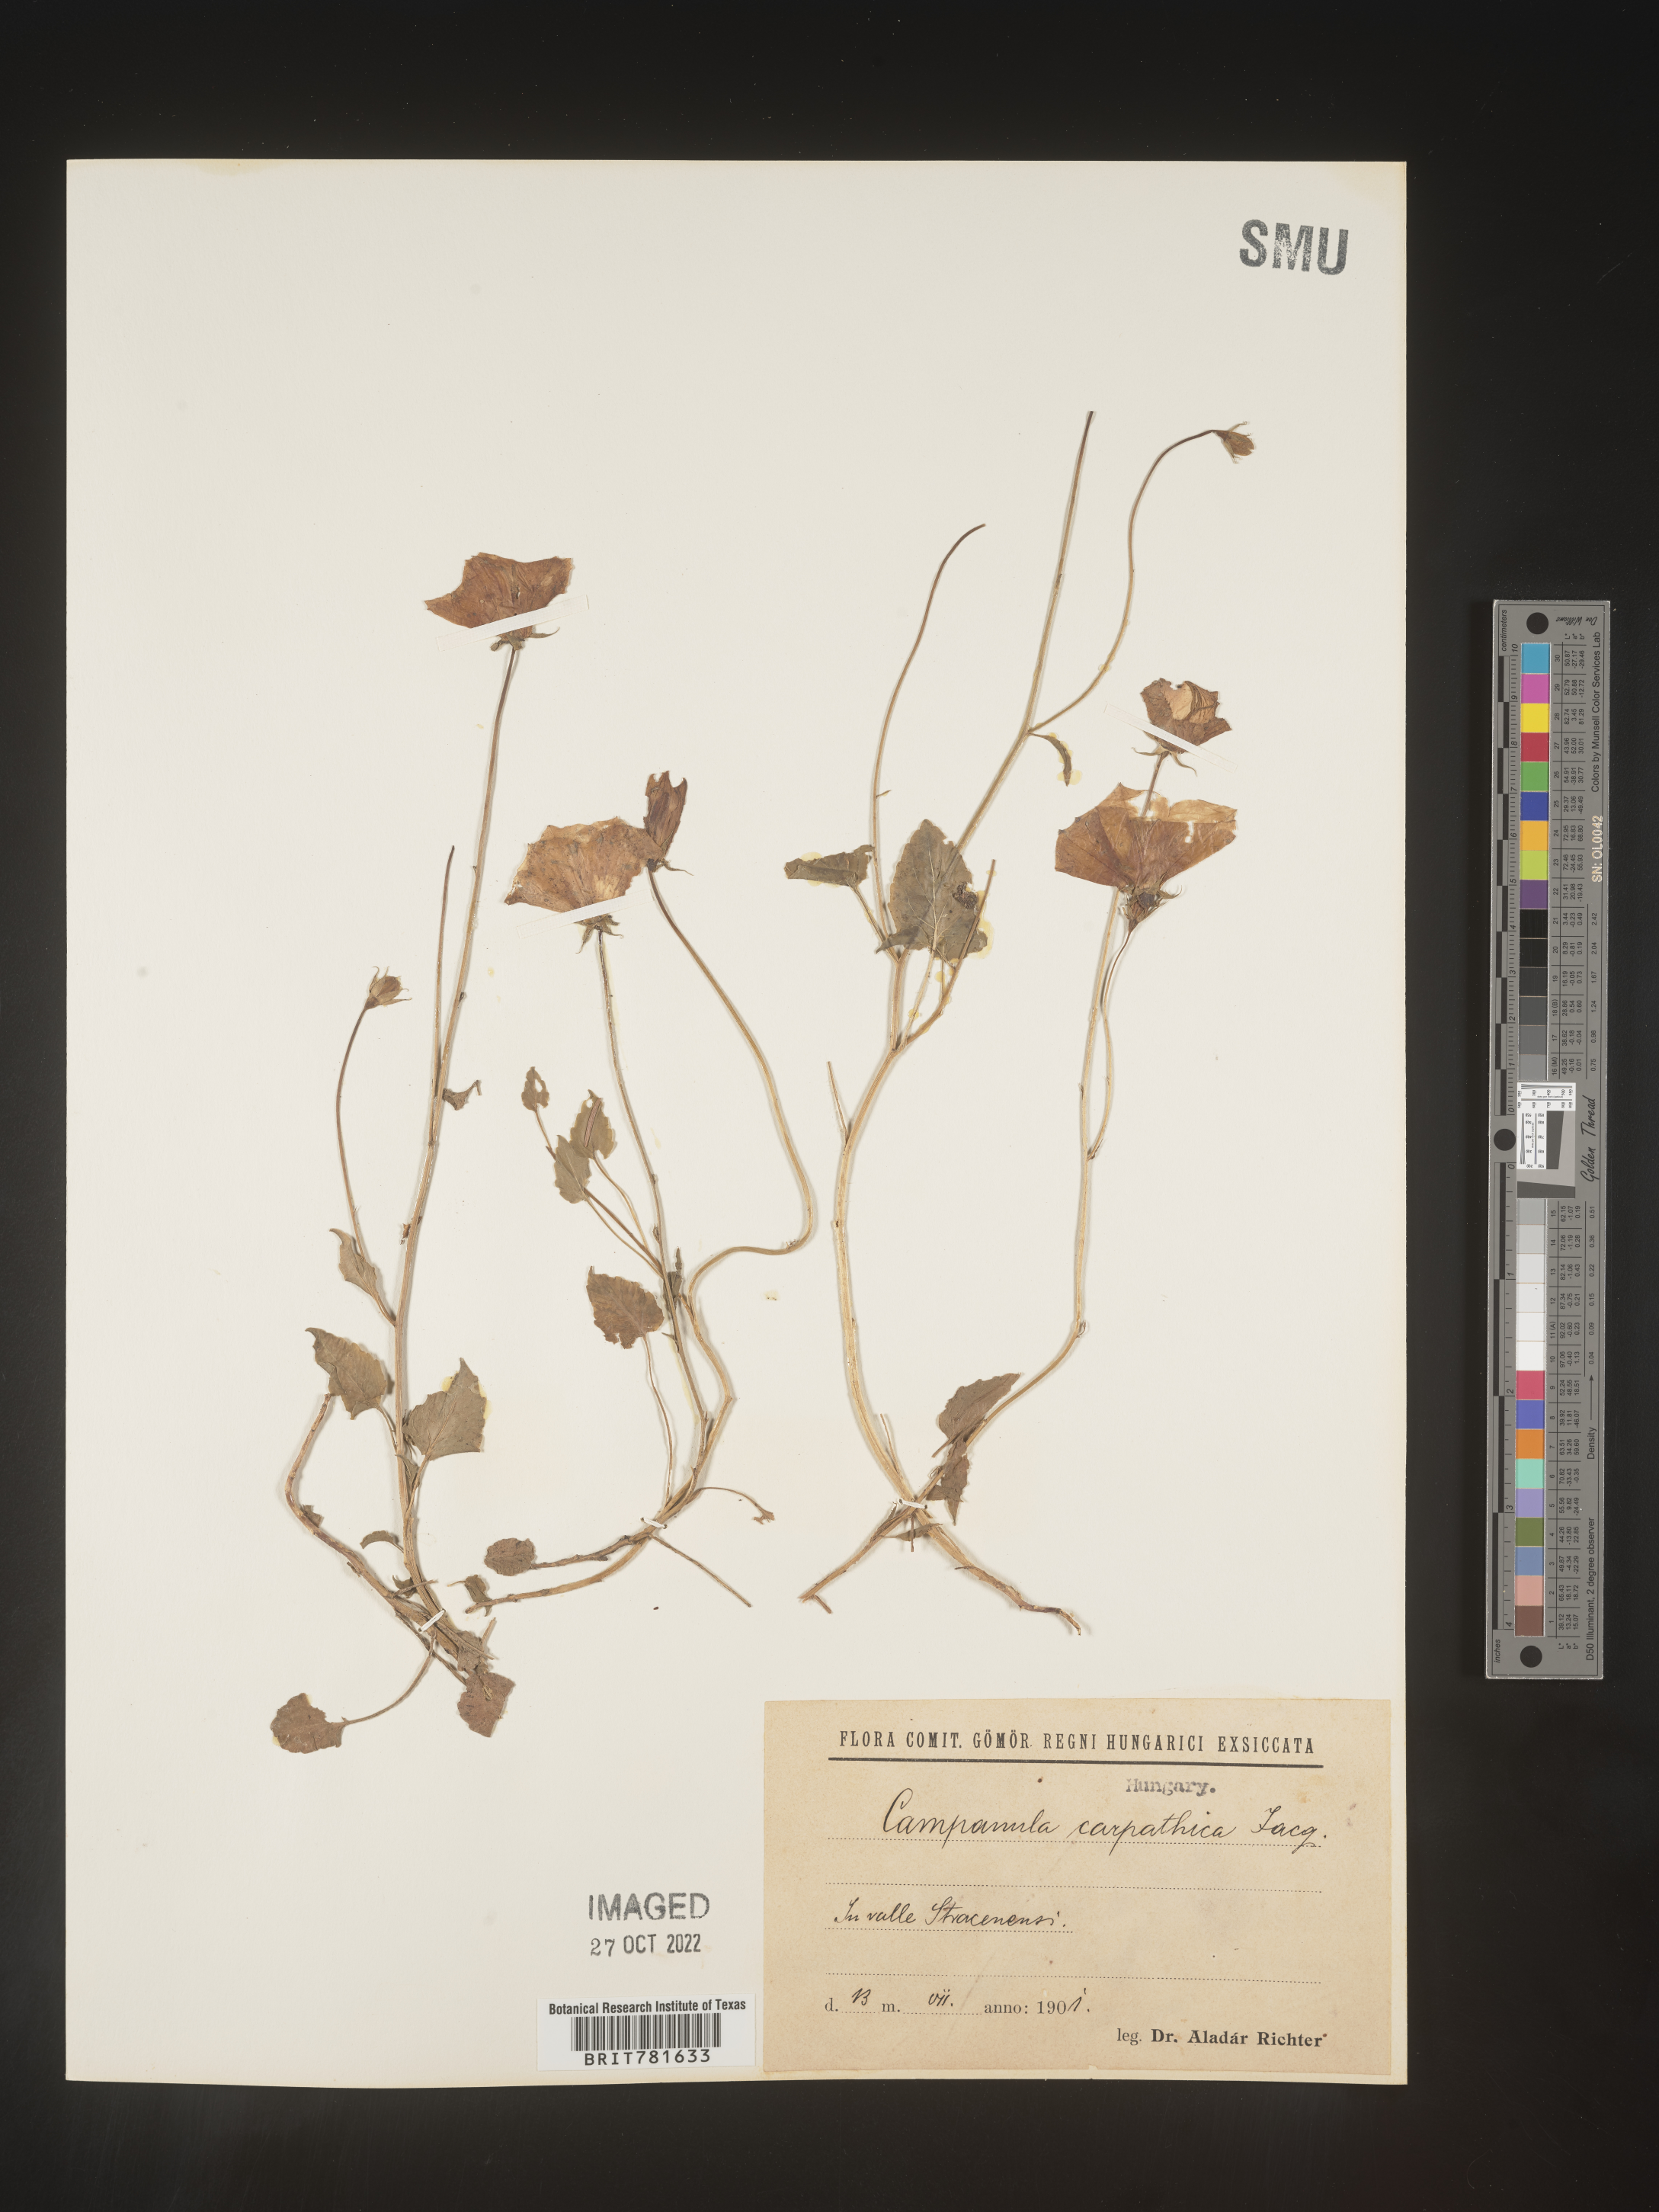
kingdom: Plantae
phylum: Tracheophyta
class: Magnoliopsida
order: Asterales
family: Campanulaceae
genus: Campanula
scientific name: Campanula
